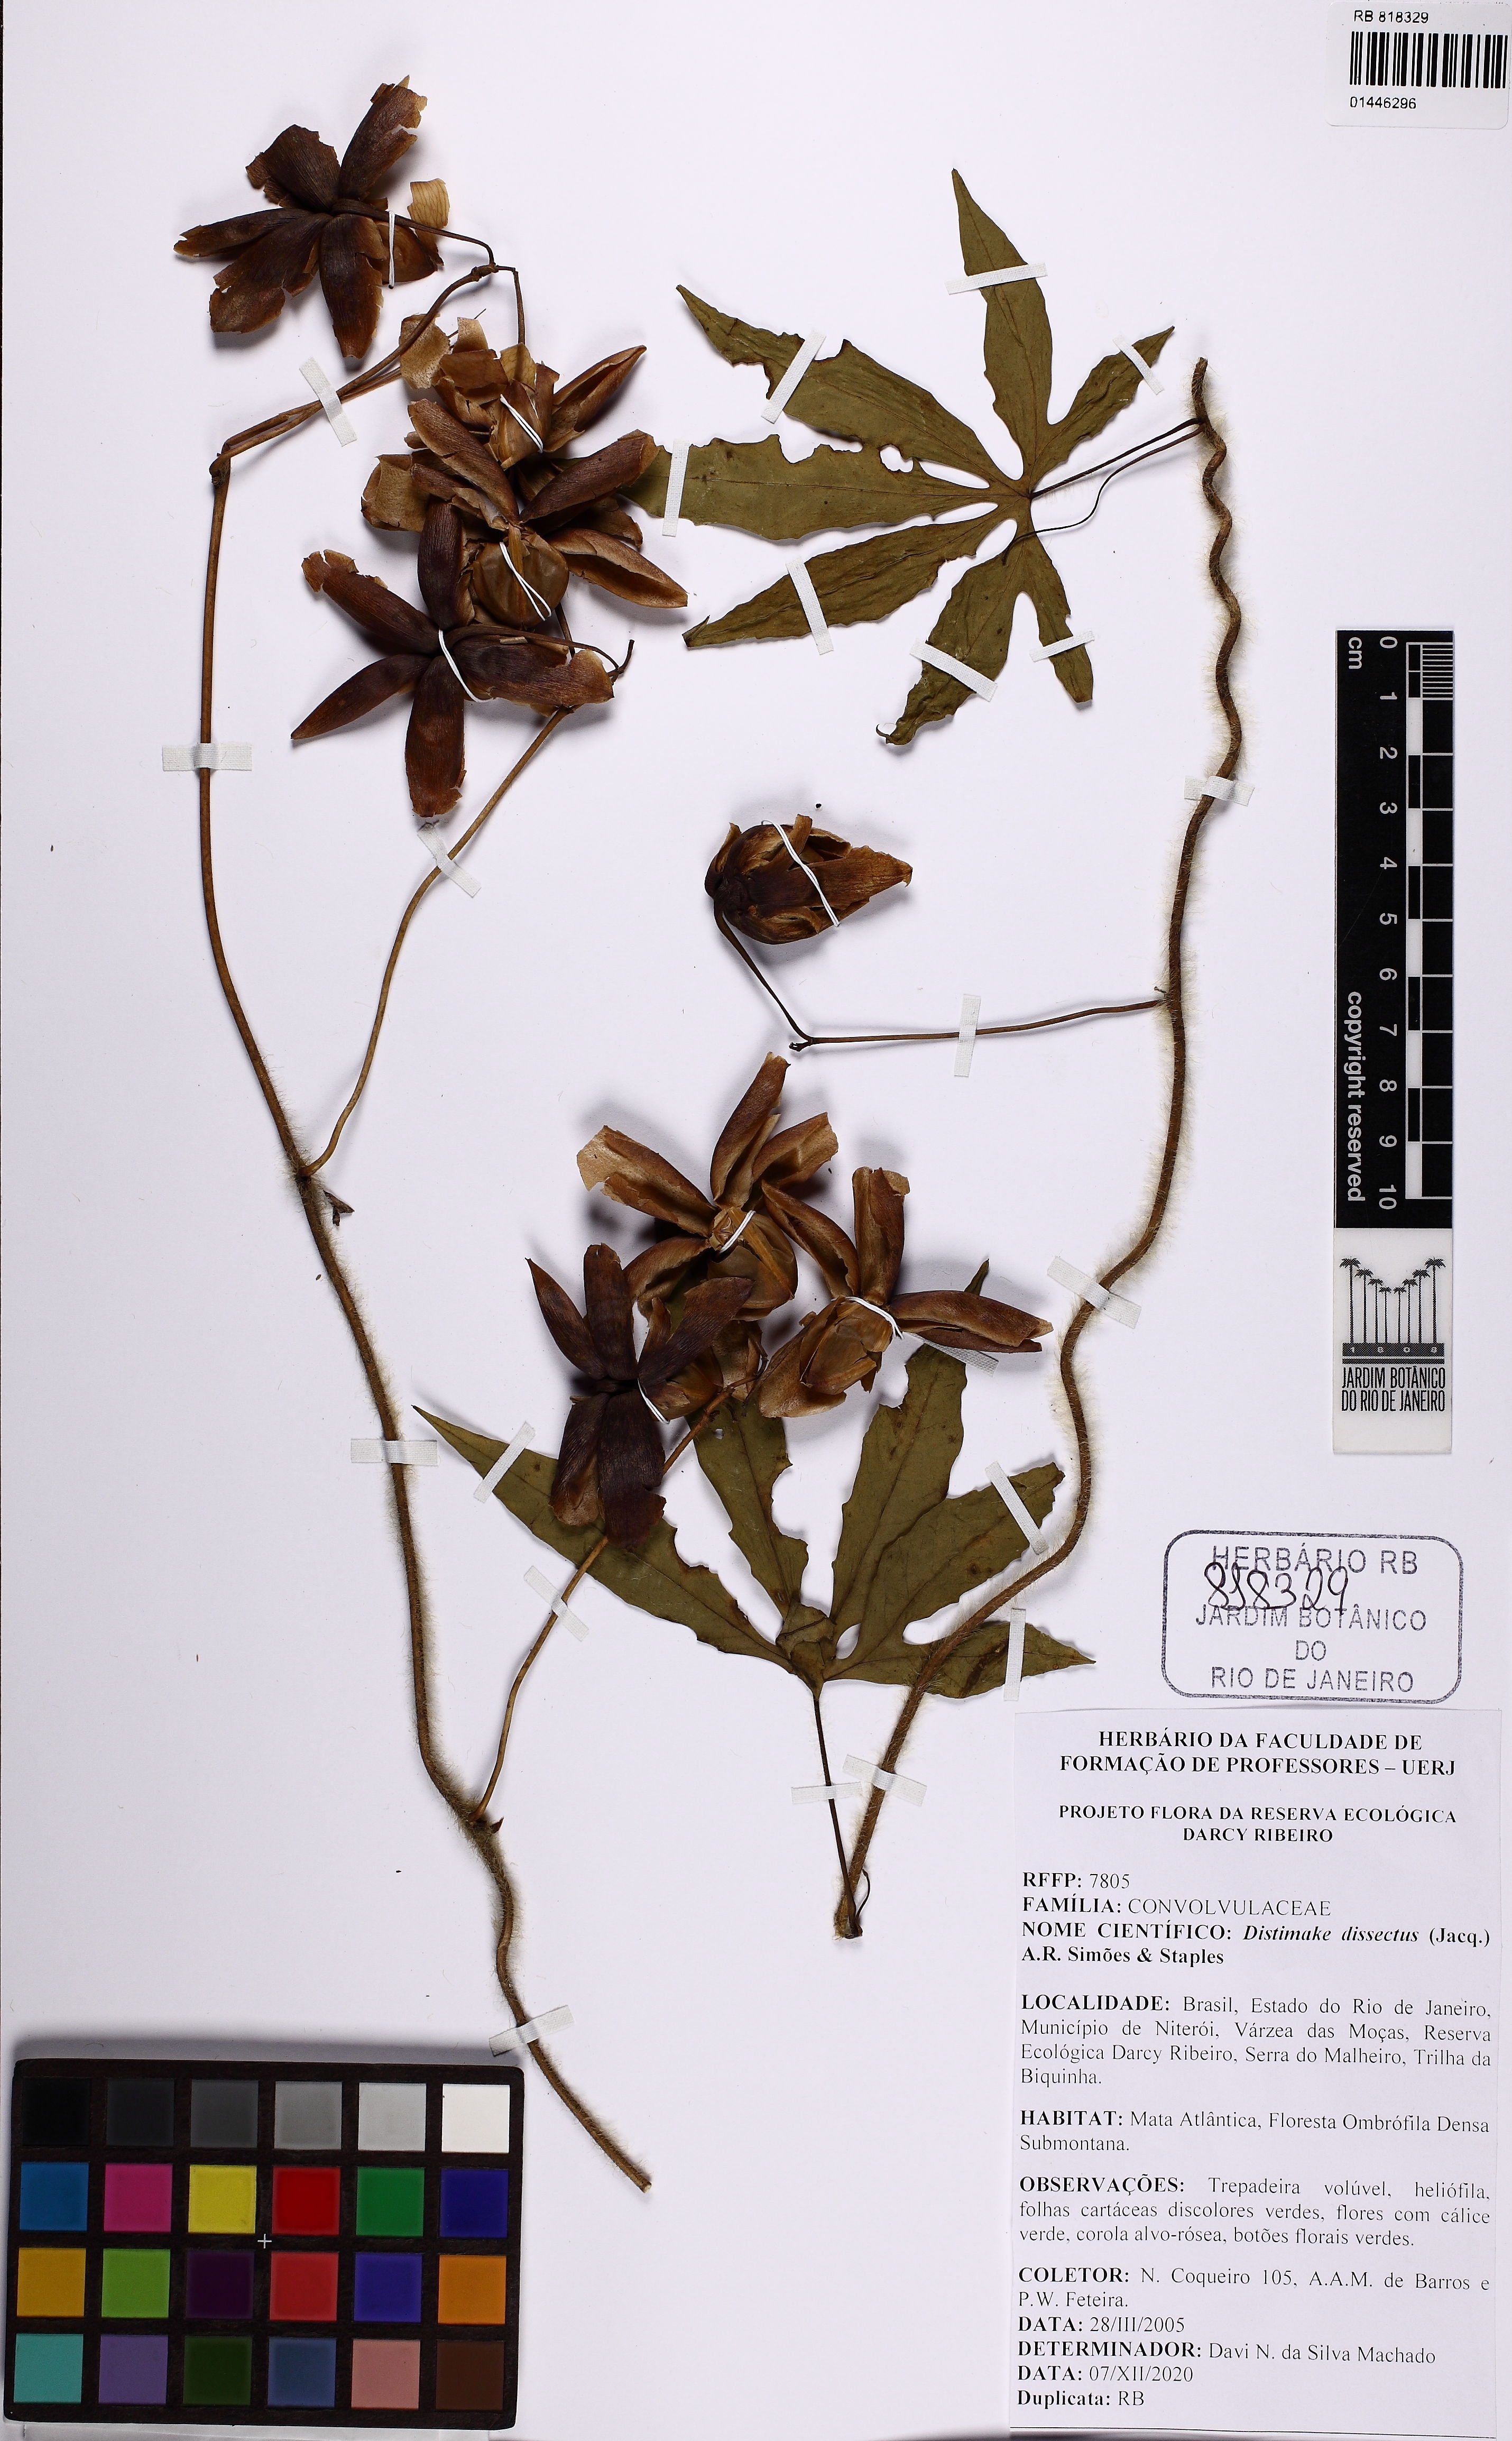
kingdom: Plantae
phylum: Tracheophyta
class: Magnoliopsida
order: Solanales
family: Convolvulaceae
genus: Distimake
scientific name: Distimake dissectus
